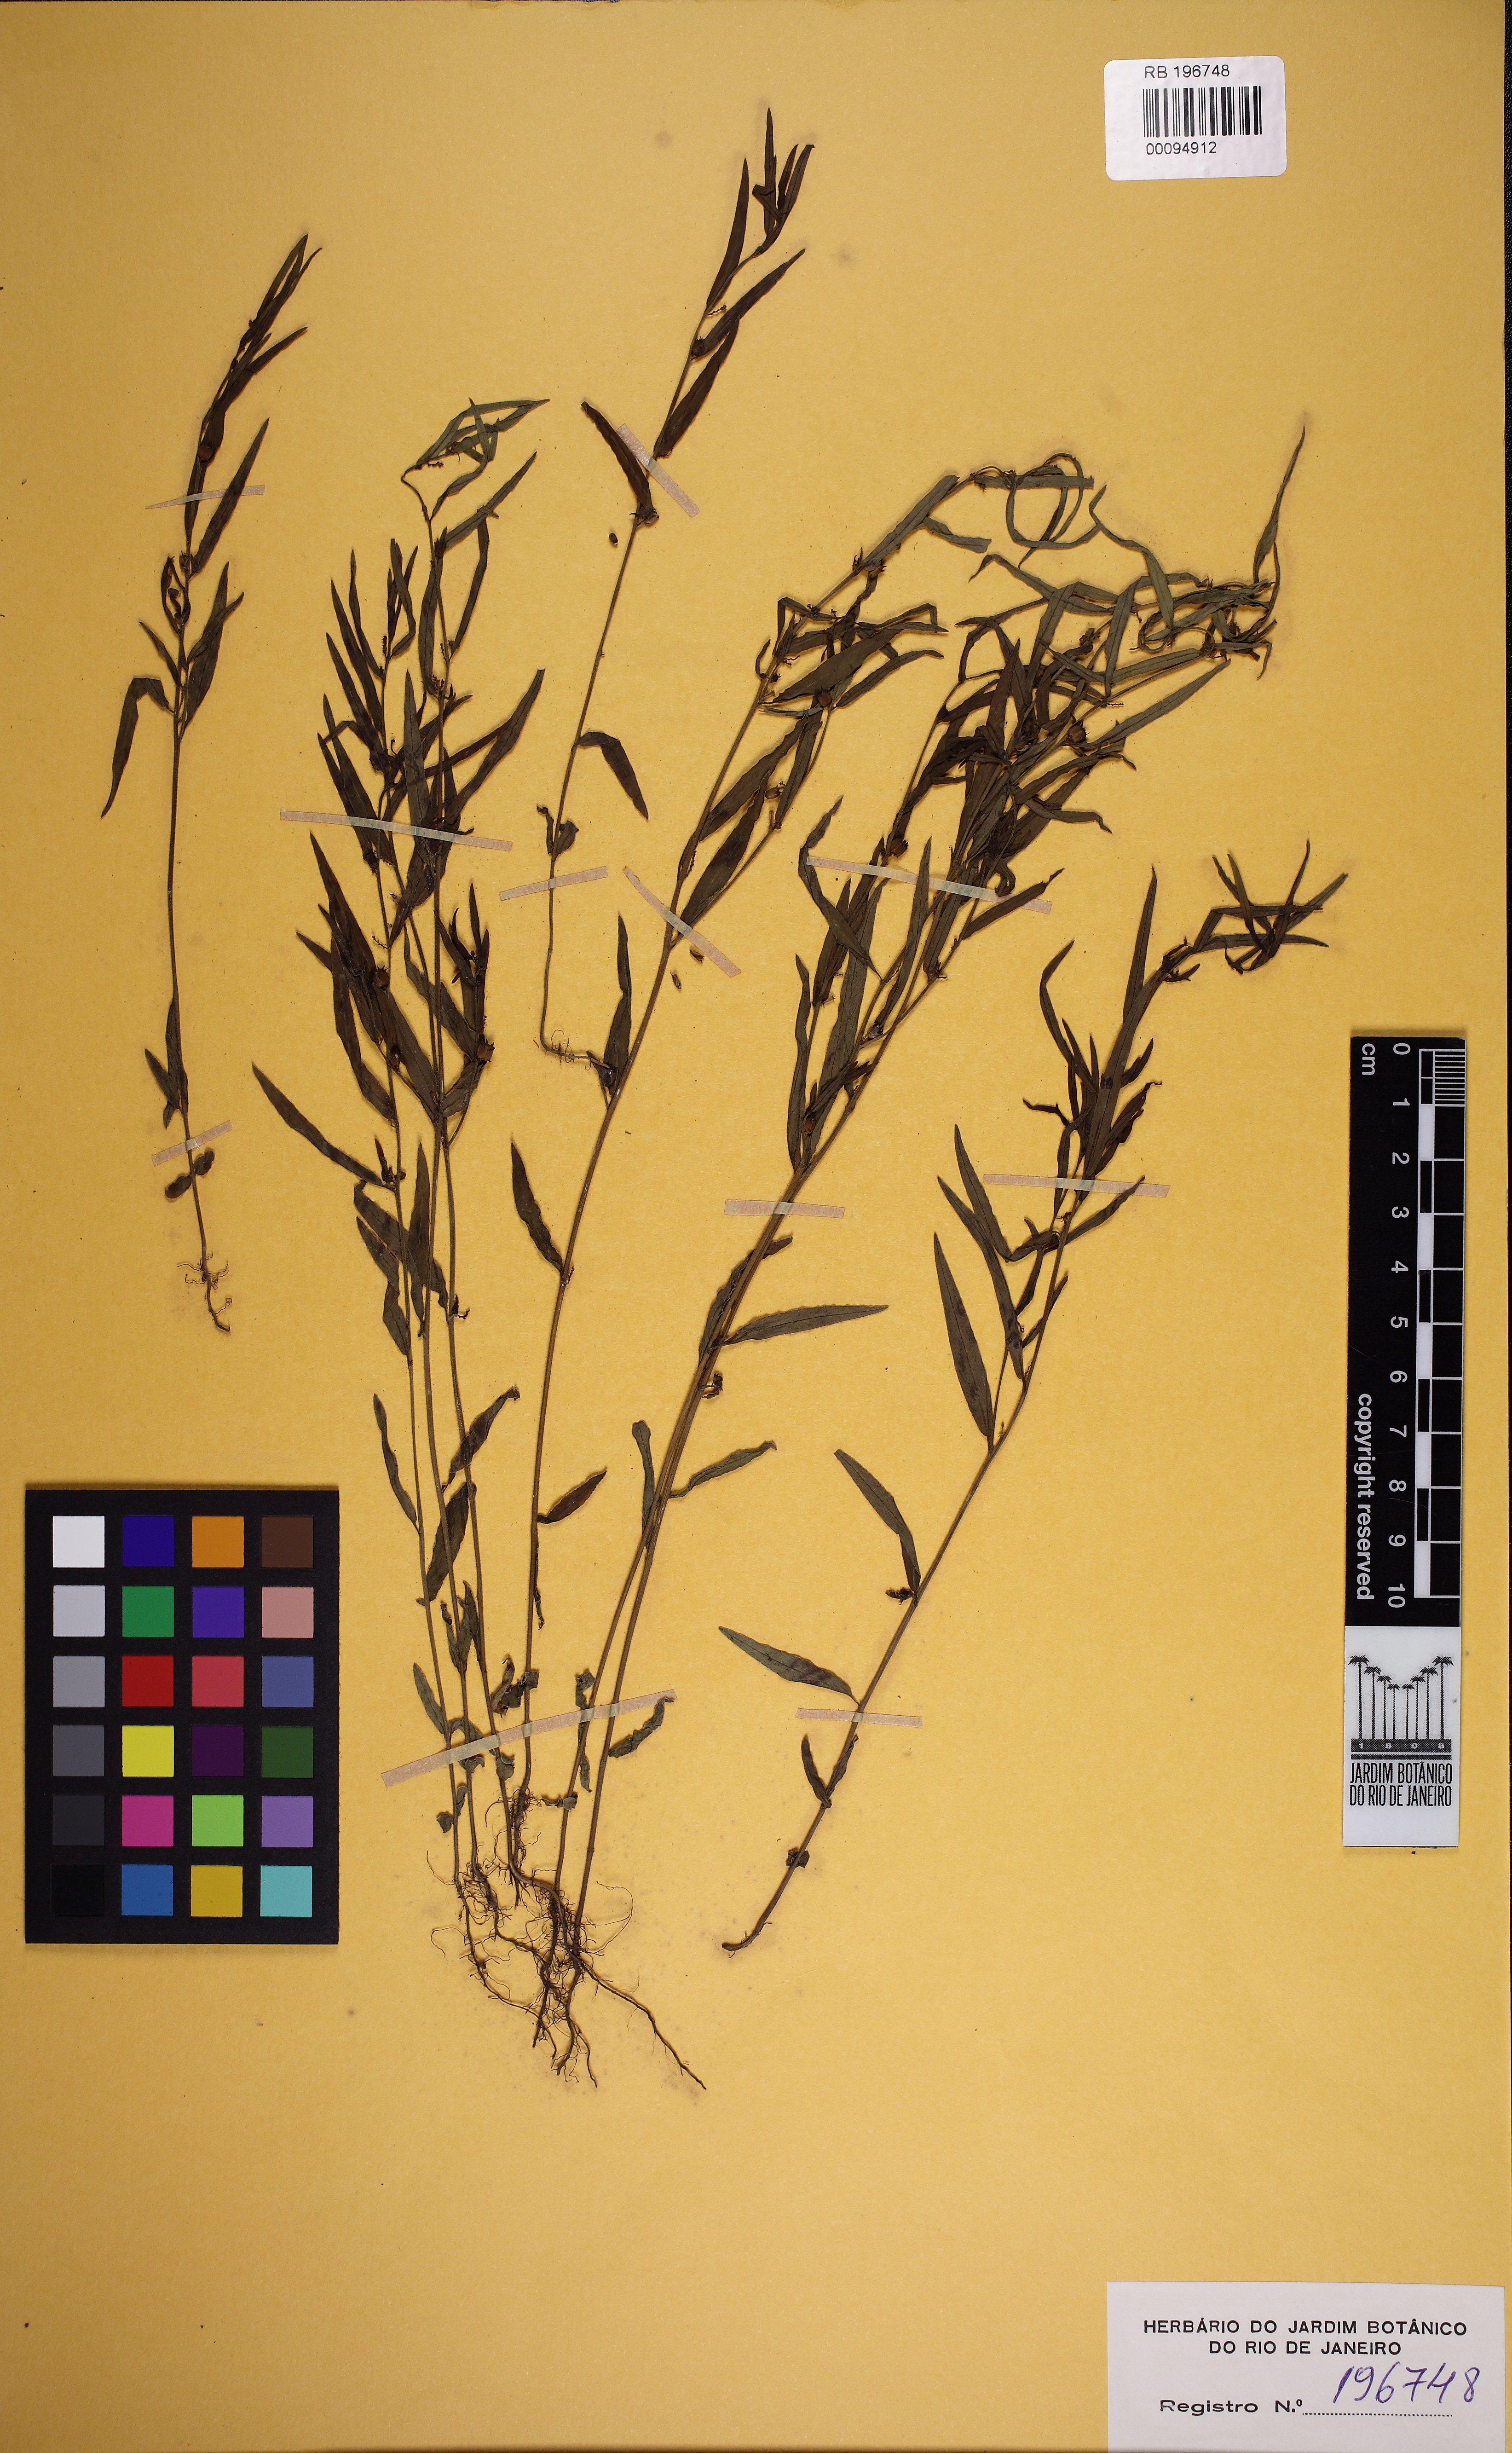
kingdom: Plantae
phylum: Tracheophyta
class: Magnoliopsida
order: Malpighiales
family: Euphorbiaceae
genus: Microstachys
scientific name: Microstachys salicifolia
